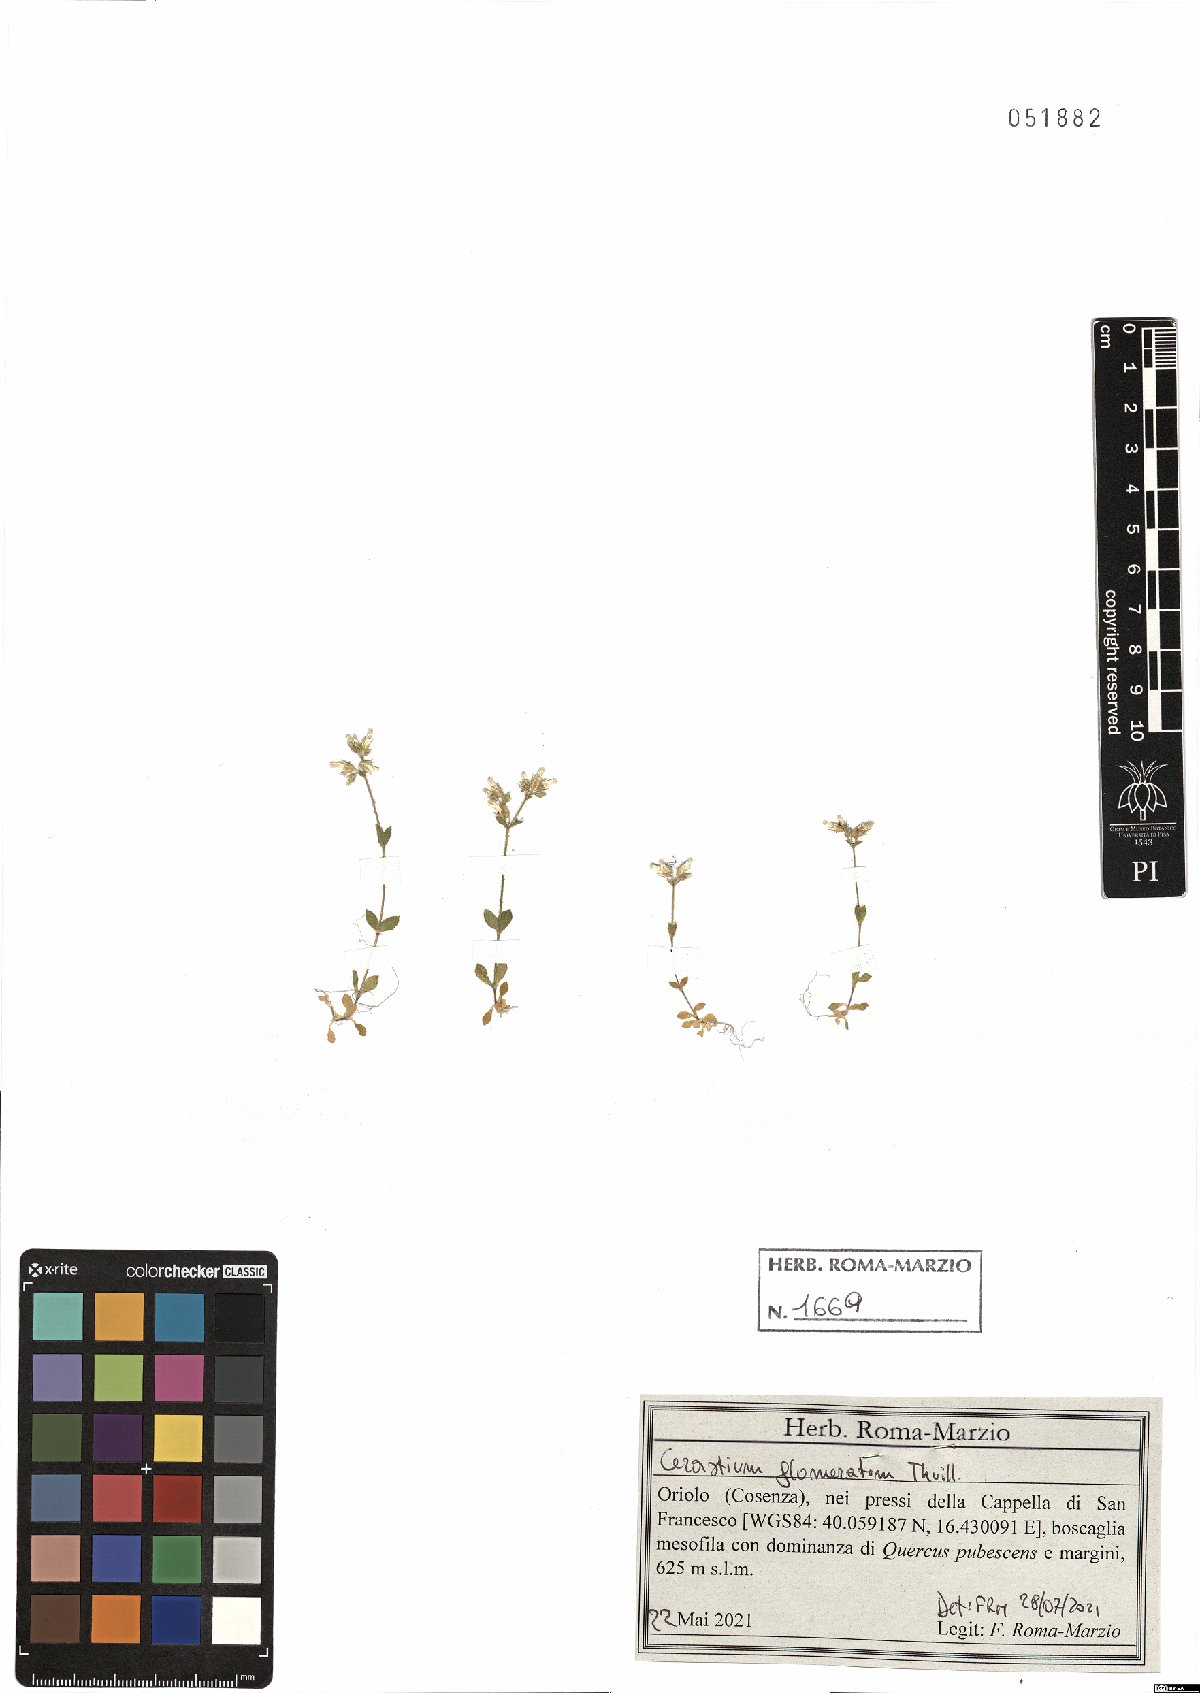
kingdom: Plantae
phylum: Tracheophyta
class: Magnoliopsida
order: Caryophyllales
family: Caryophyllaceae
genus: Cerastium
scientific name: Cerastium glomeratum
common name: Sticky chickweed
